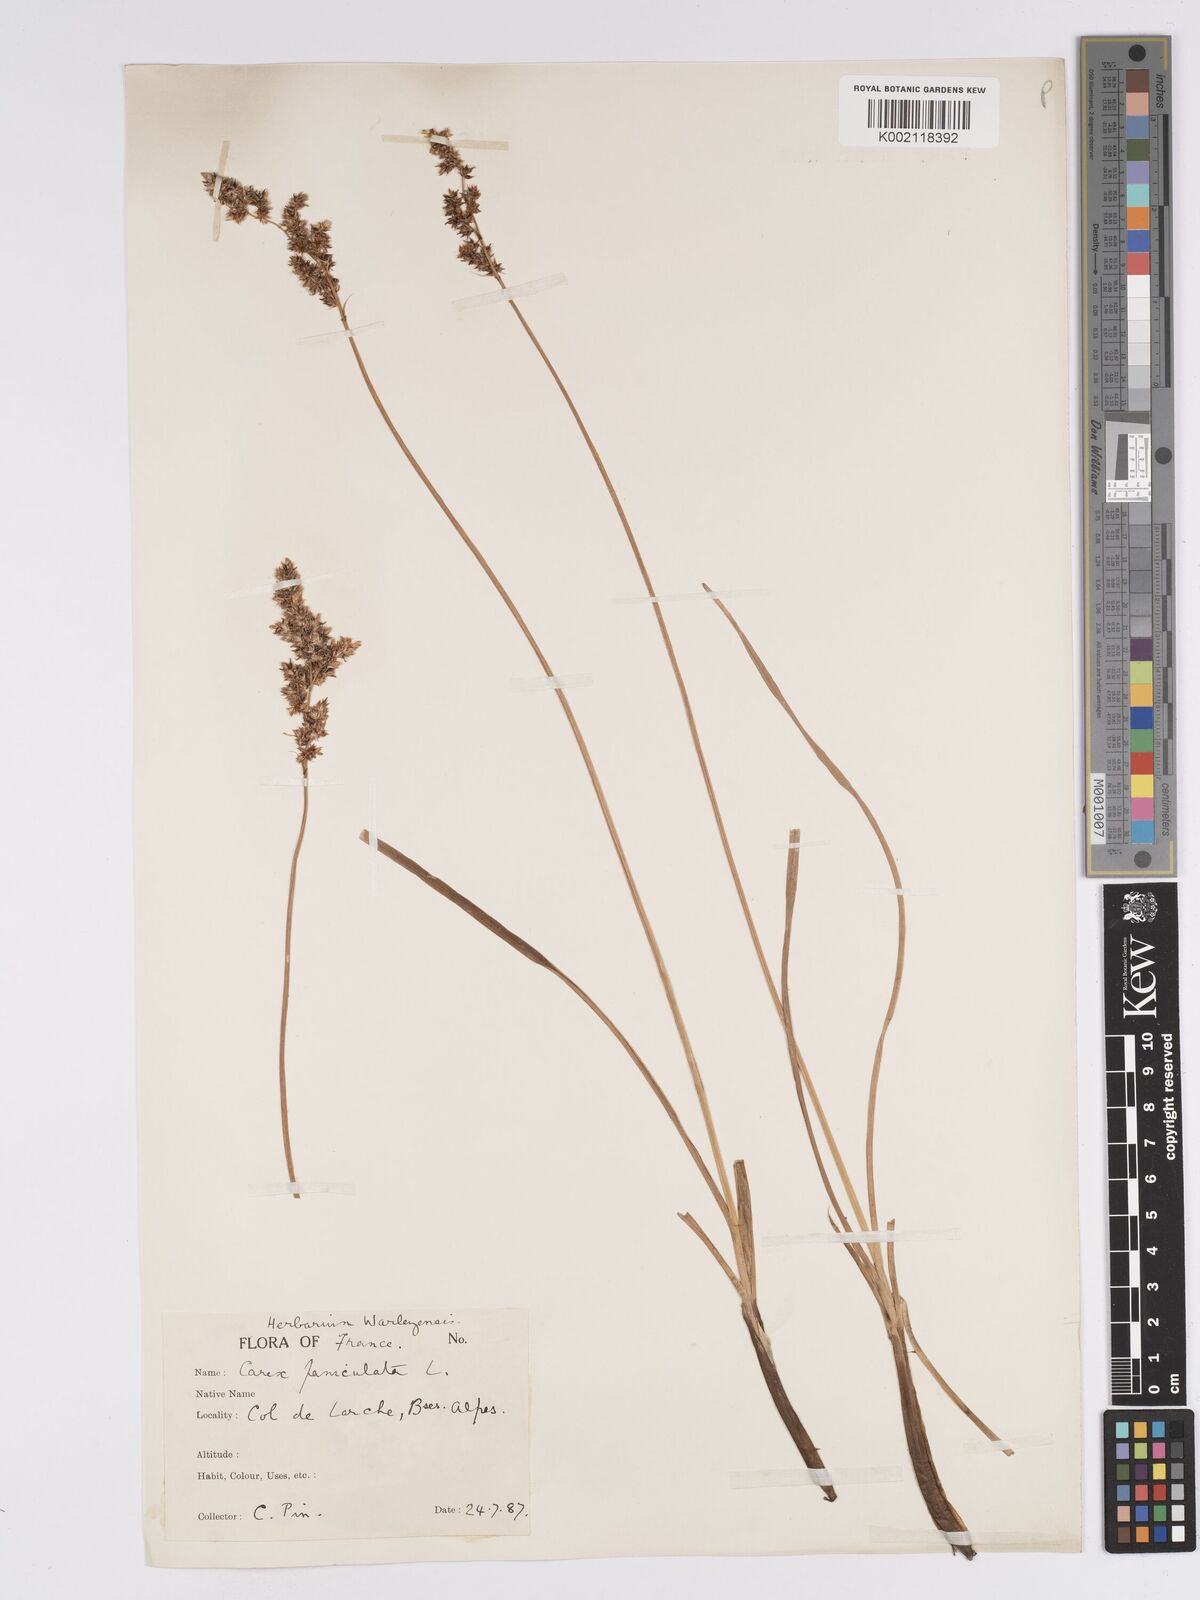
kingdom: Plantae
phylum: Tracheophyta
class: Liliopsida
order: Poales
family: Cyperaceae
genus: Carex
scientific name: Carex paniculata
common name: Greater tussock-sedge
